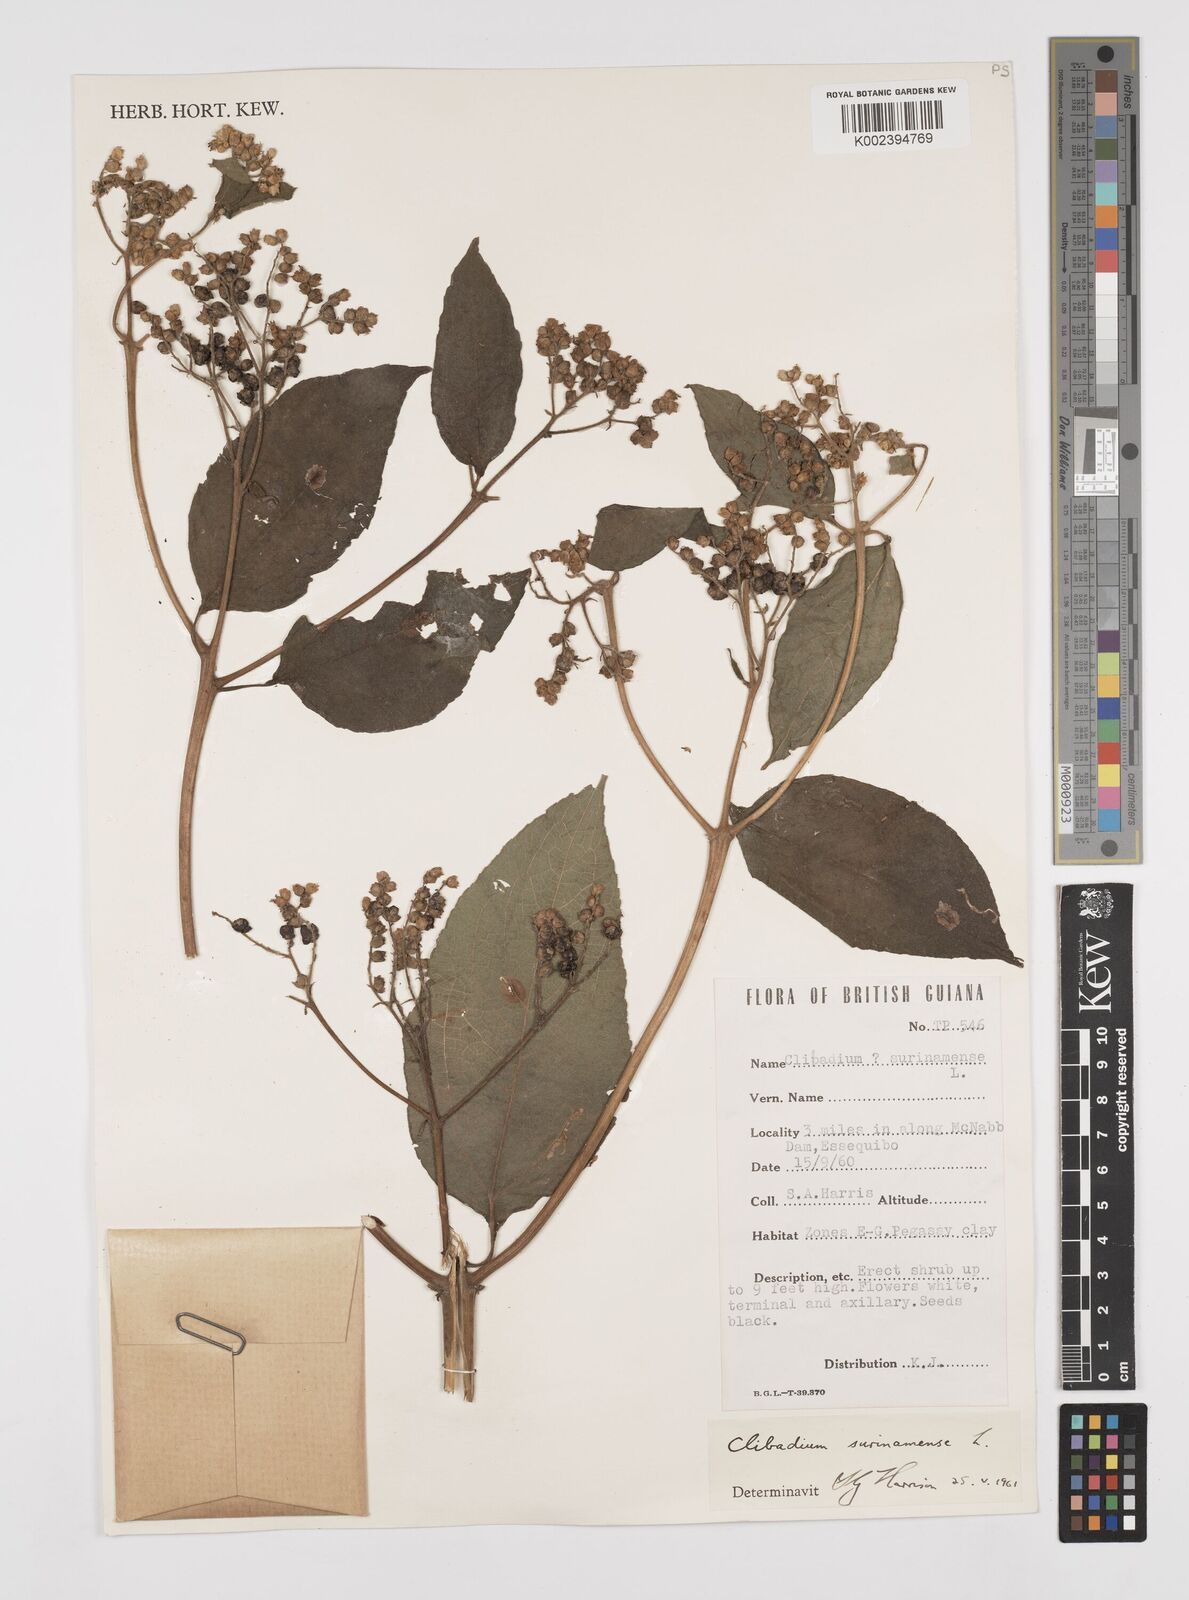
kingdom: Plantae
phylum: Tracheophyta
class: Magnoliopsida
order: Asterales
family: Asteraceae
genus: Clibadium
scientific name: Clibadium surinamense
